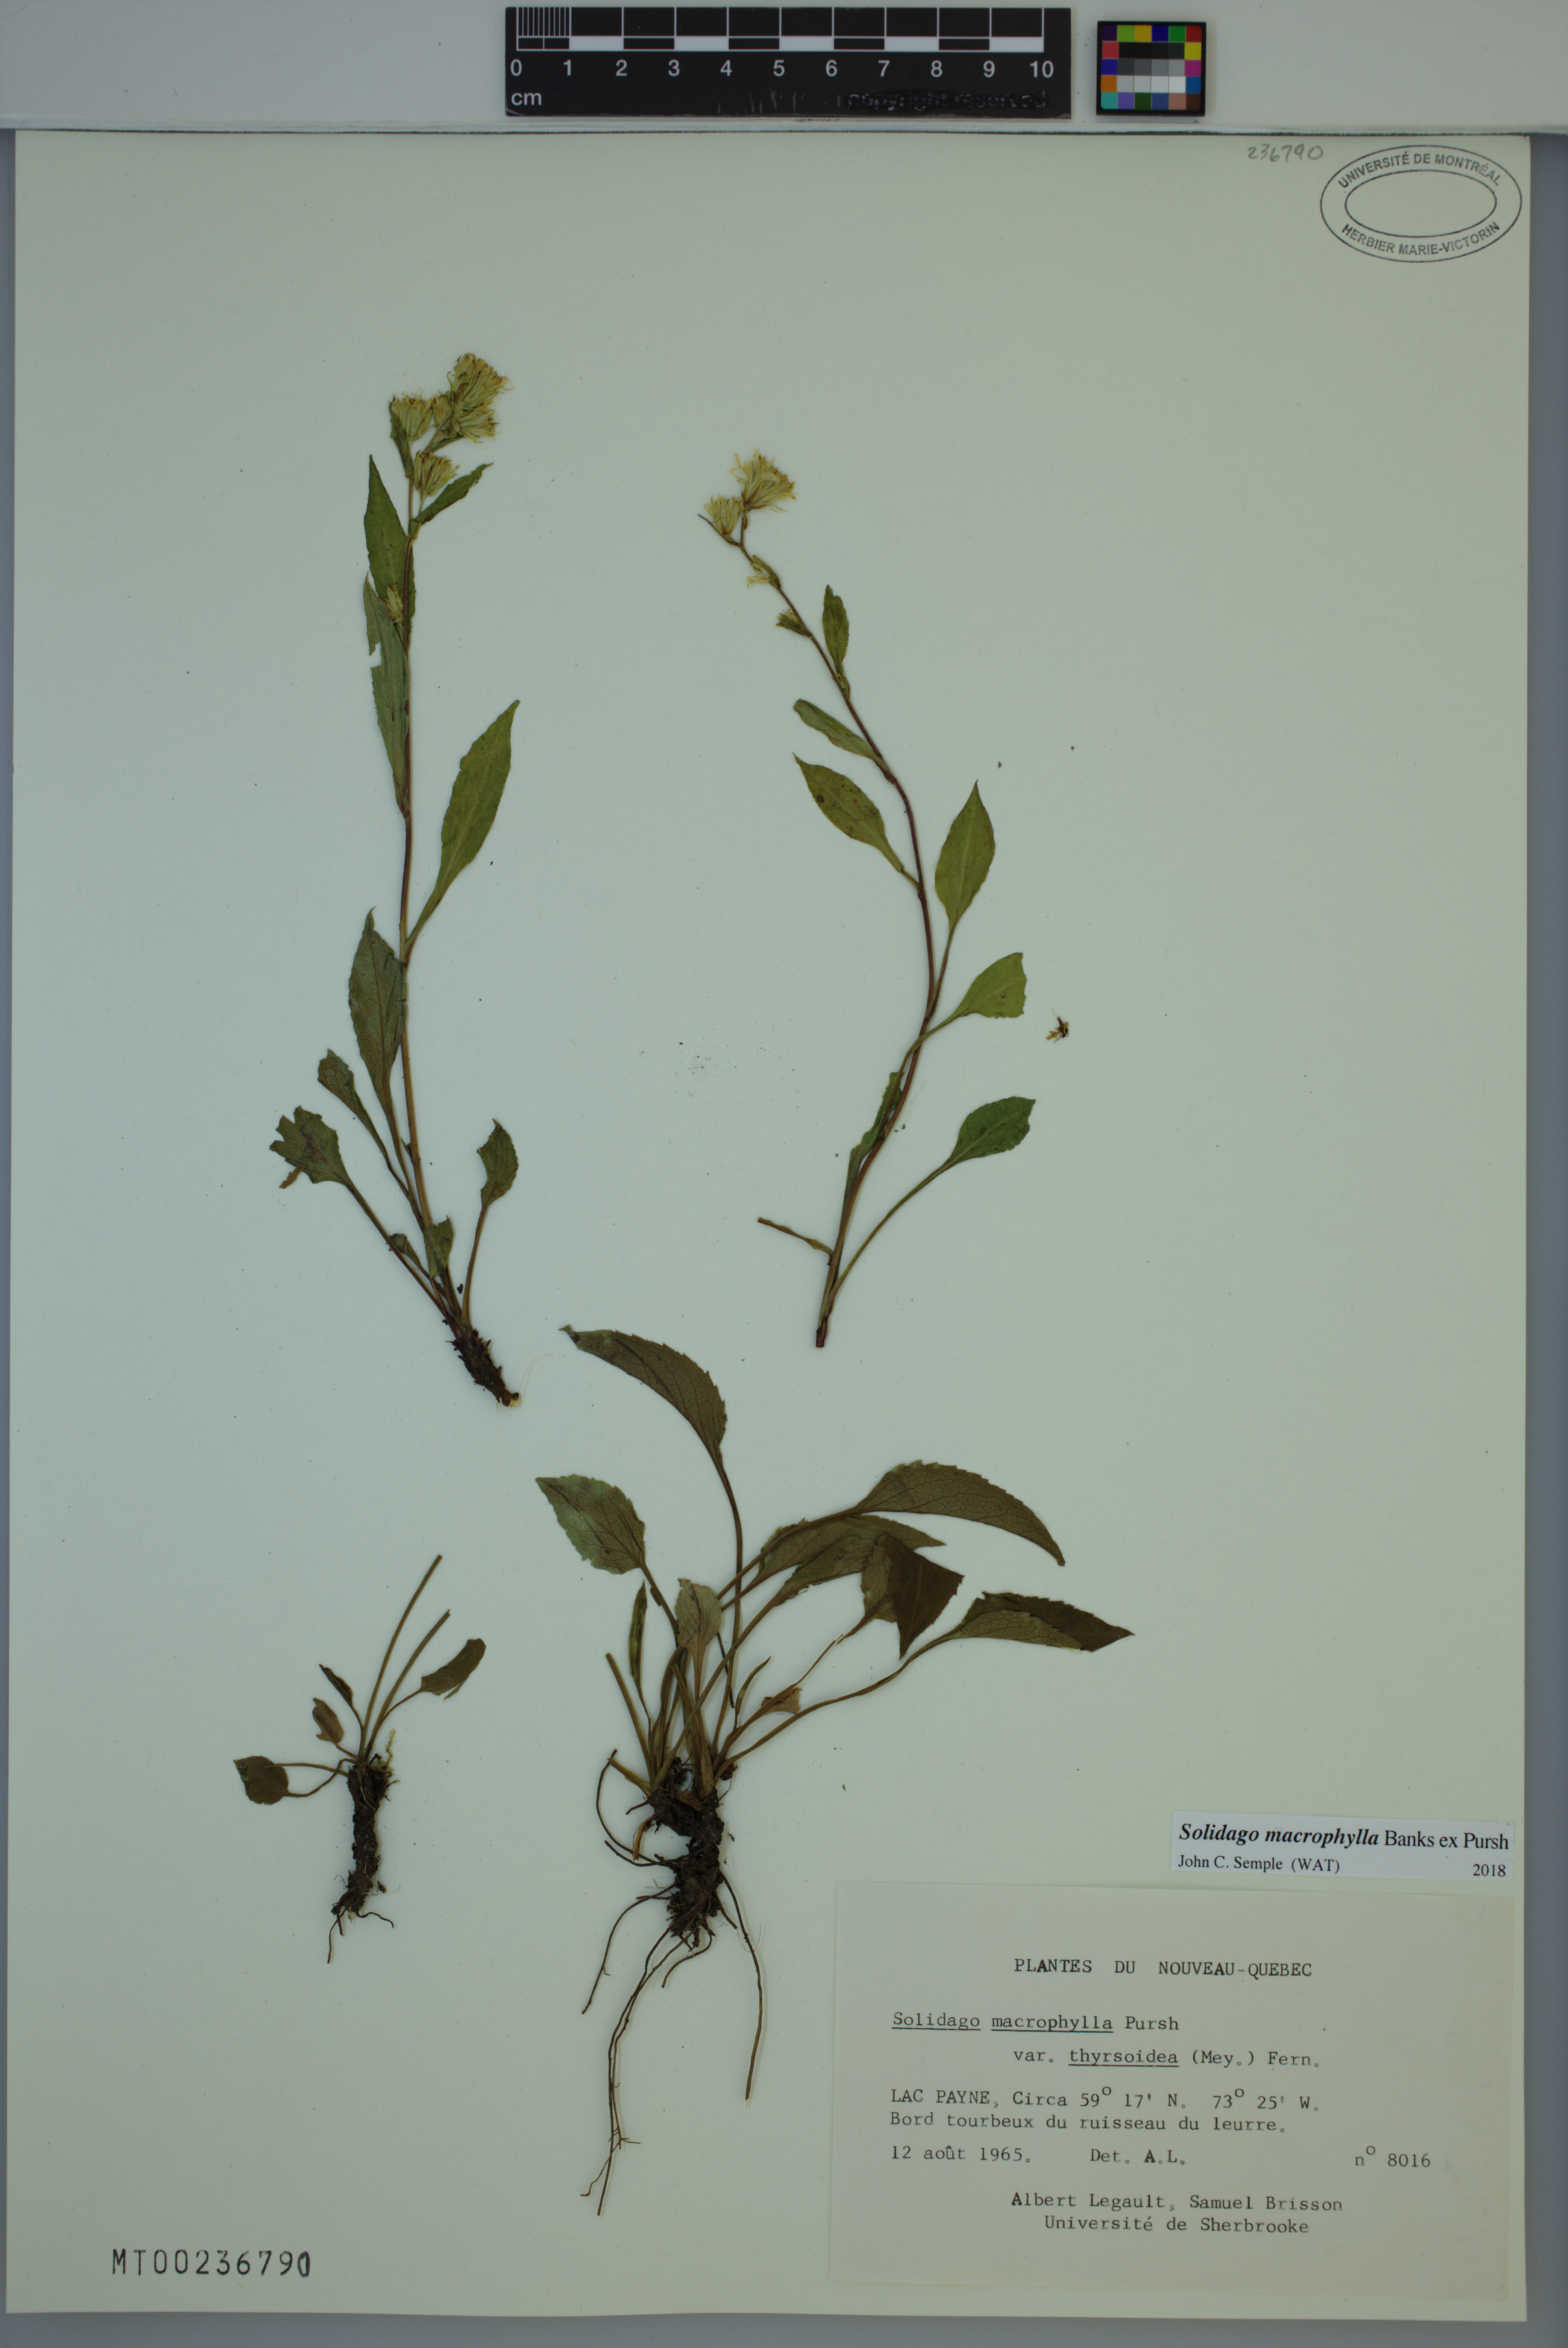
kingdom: Plantae
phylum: Tracheophyta
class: Magnoliopsida
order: Asterales
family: Asteraceae
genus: Solidago
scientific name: Solidago macrophylla
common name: Large-leaved goldenrod
